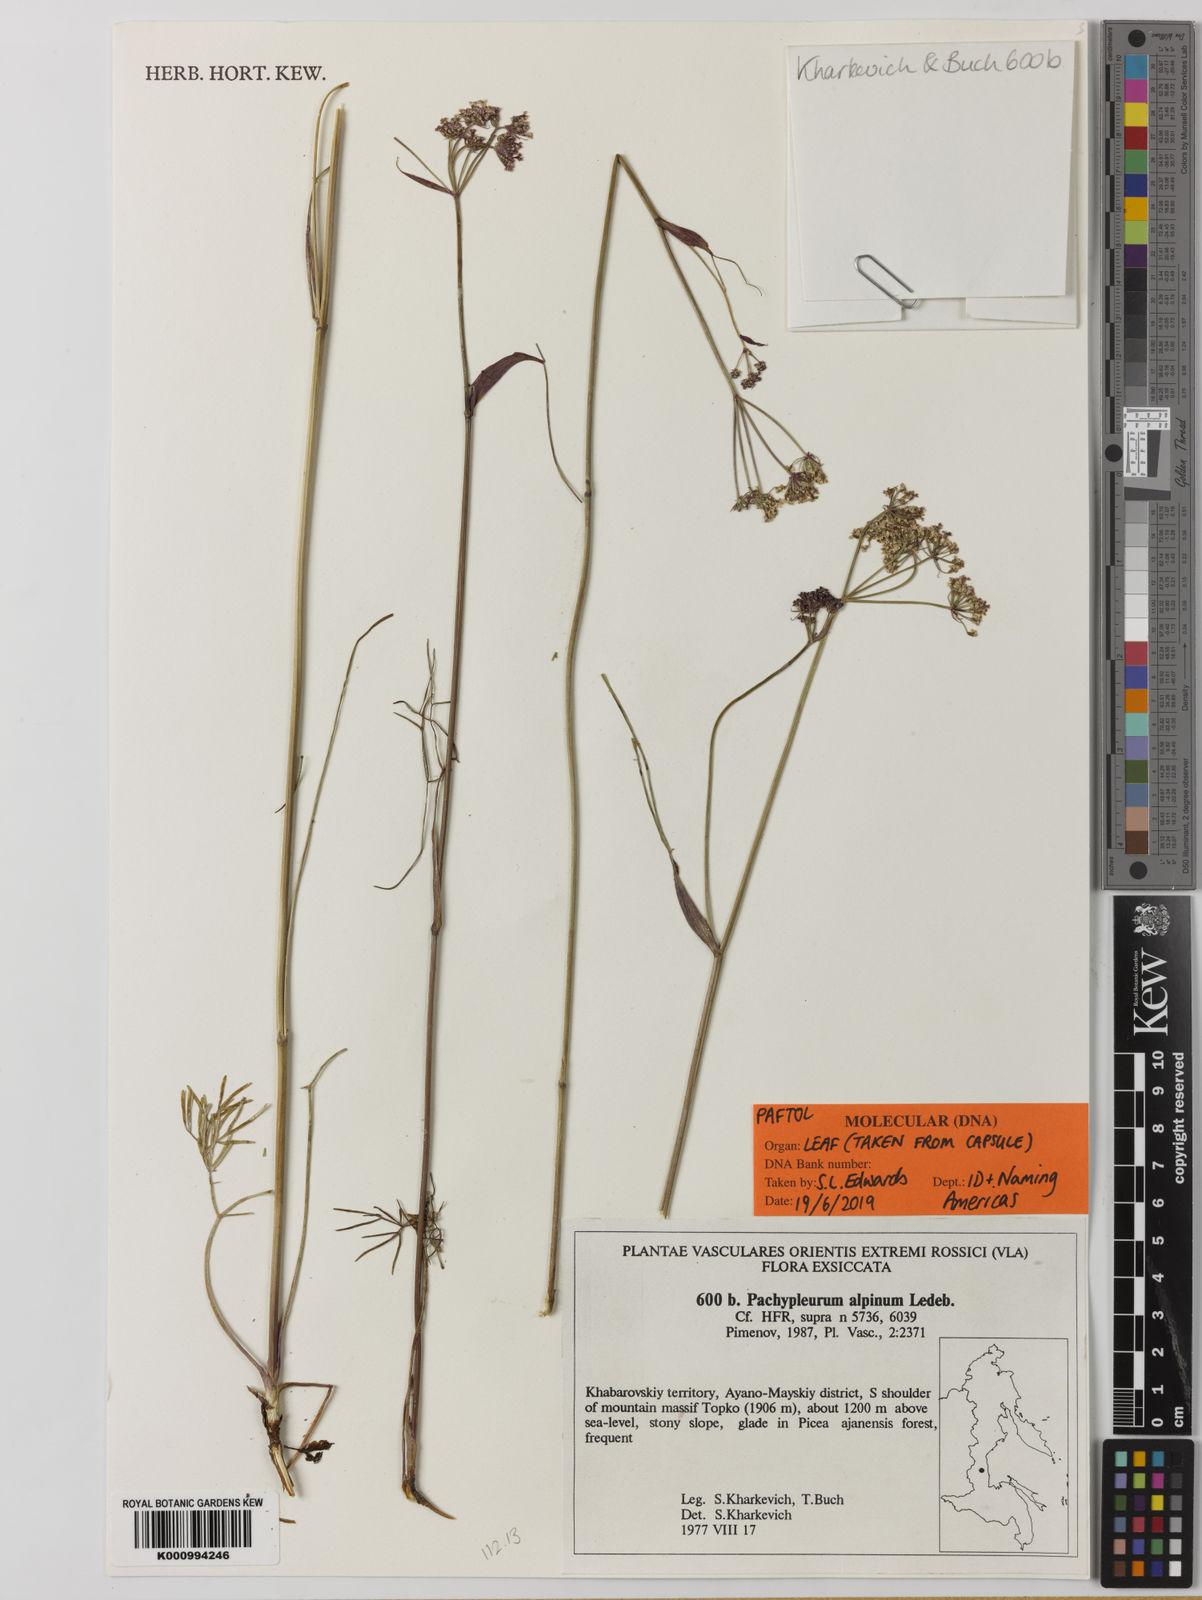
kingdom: Plantae
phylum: Tracheophyta
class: Magnoliopsida
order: Apiales
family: Apiaceae
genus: Pachypleurum
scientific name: Pachypleurum mutellinoides
